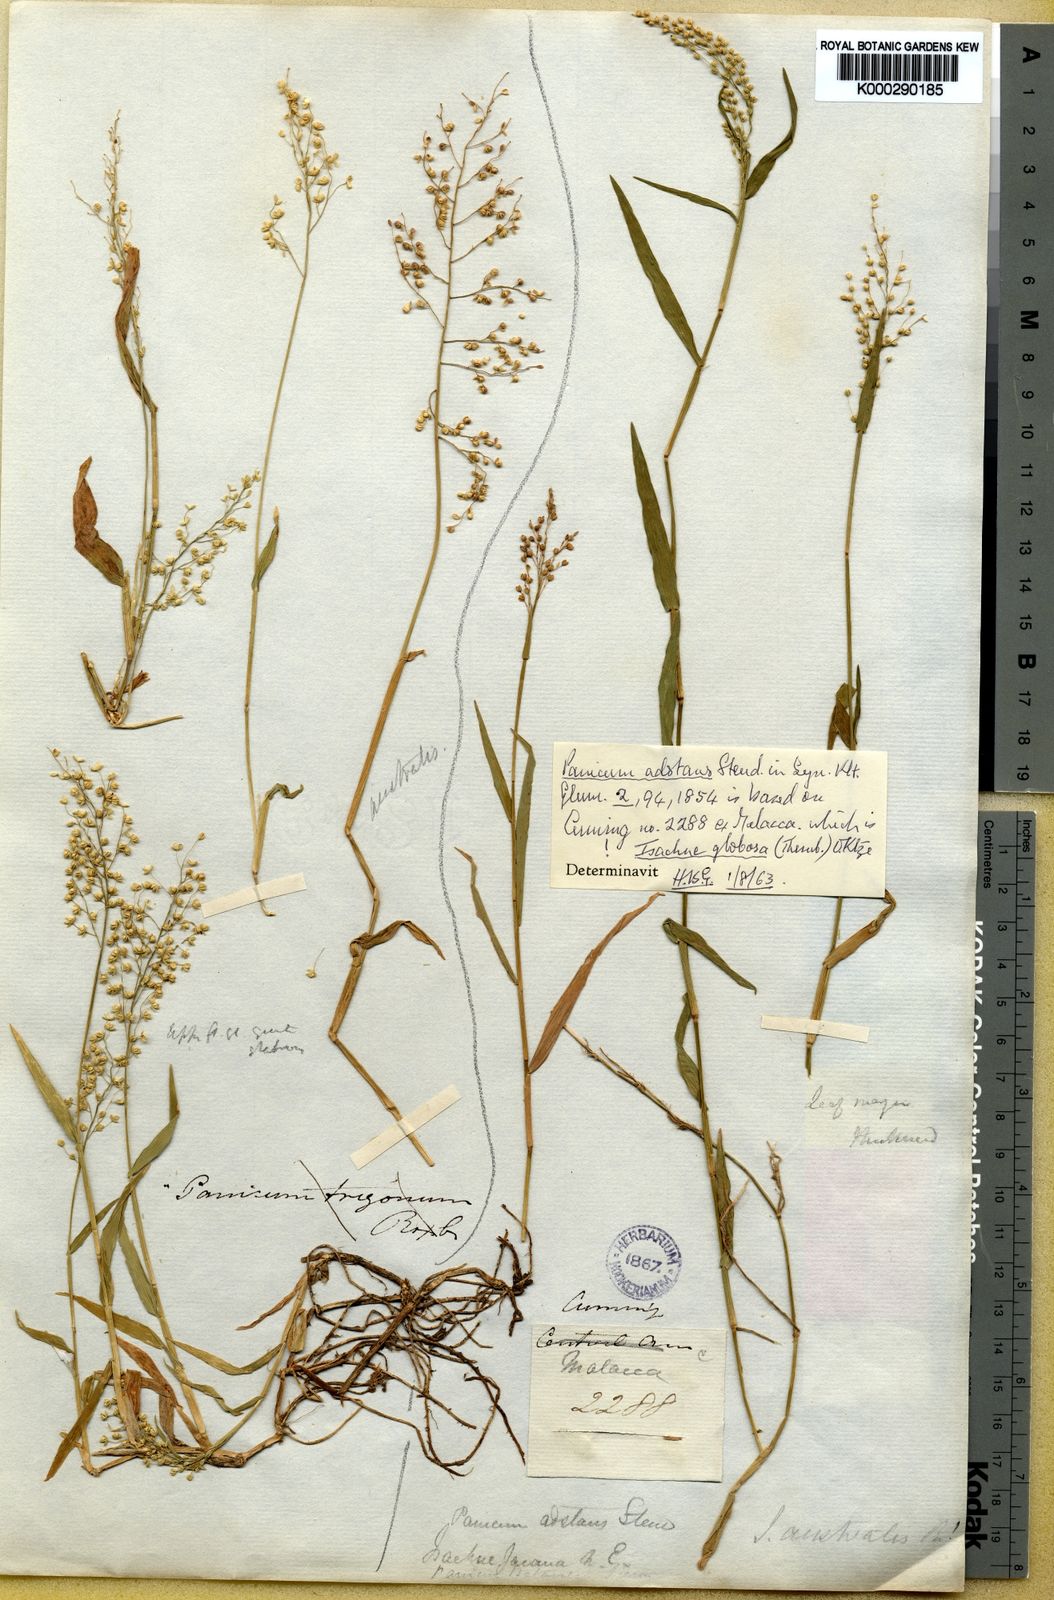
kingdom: Plantae
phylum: Tracheophyta
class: Liliopsida
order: Poales
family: Poaceae
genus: Isachne
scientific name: Isachne globosa
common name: Swamp millet
